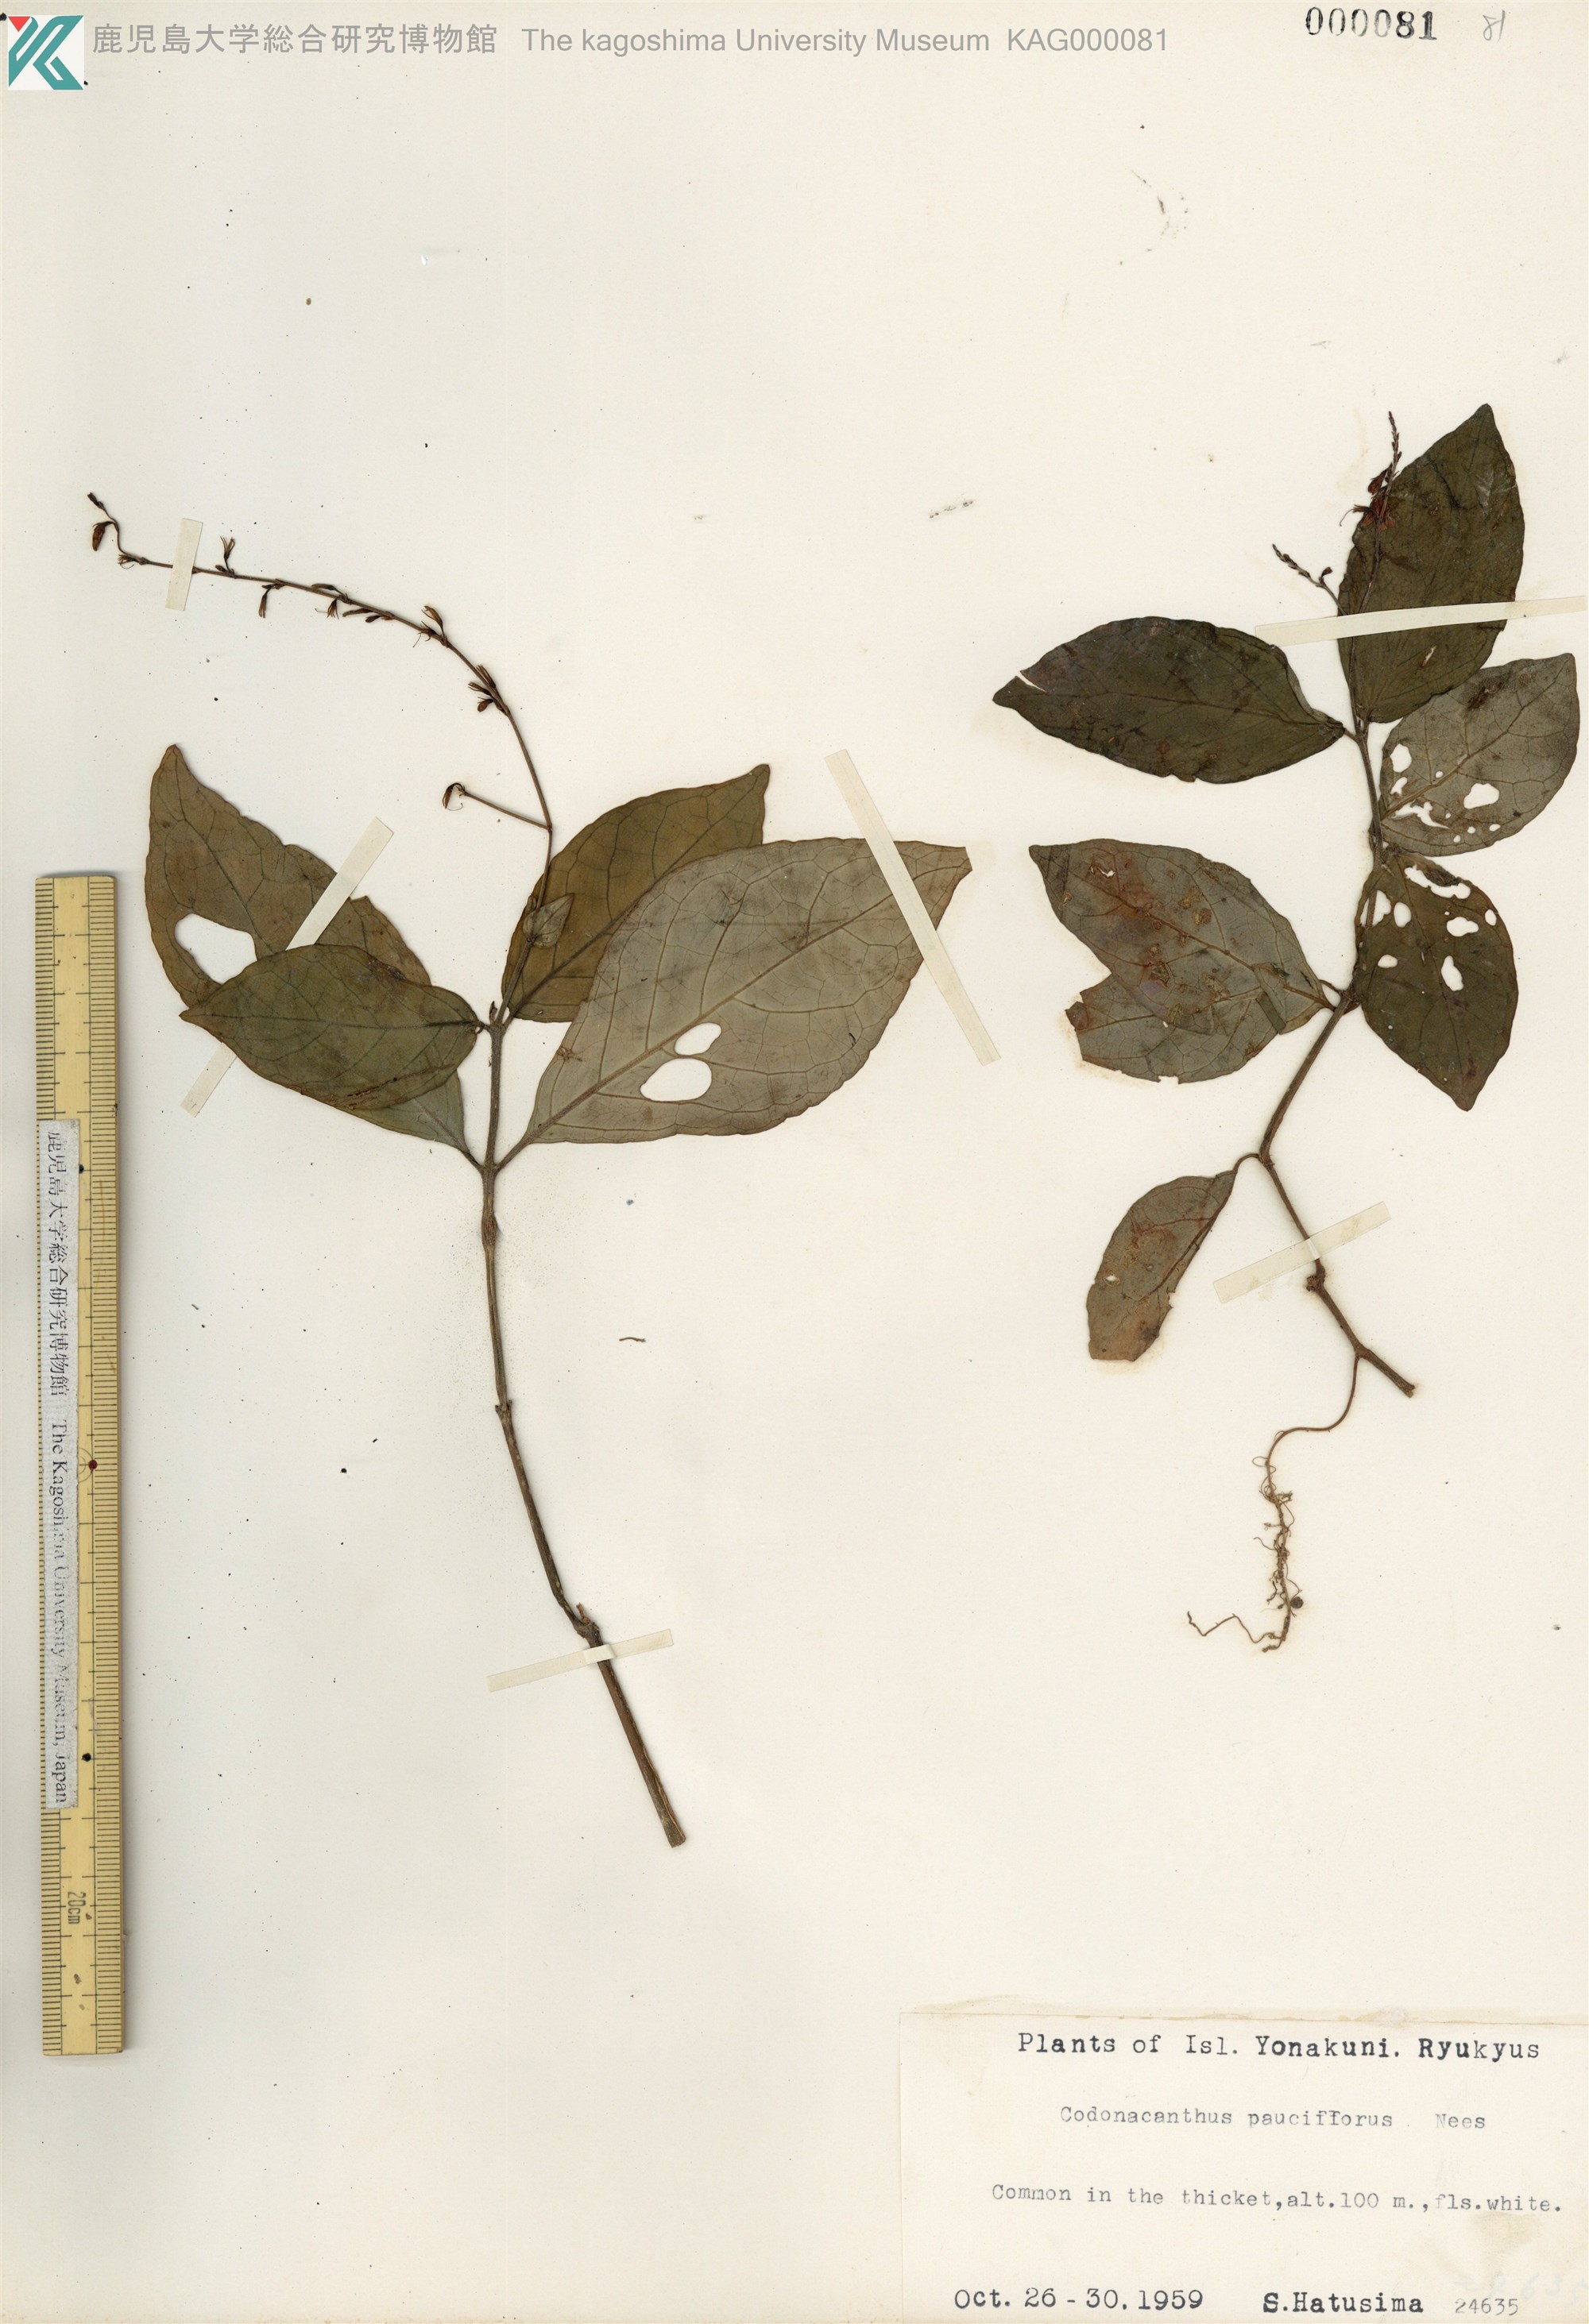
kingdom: Plantae
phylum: Tracheophyta
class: Magnoliopsida
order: Lamiales
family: Acanthaceae
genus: Codonacanthus
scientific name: Codonacanthus pauciflorus
